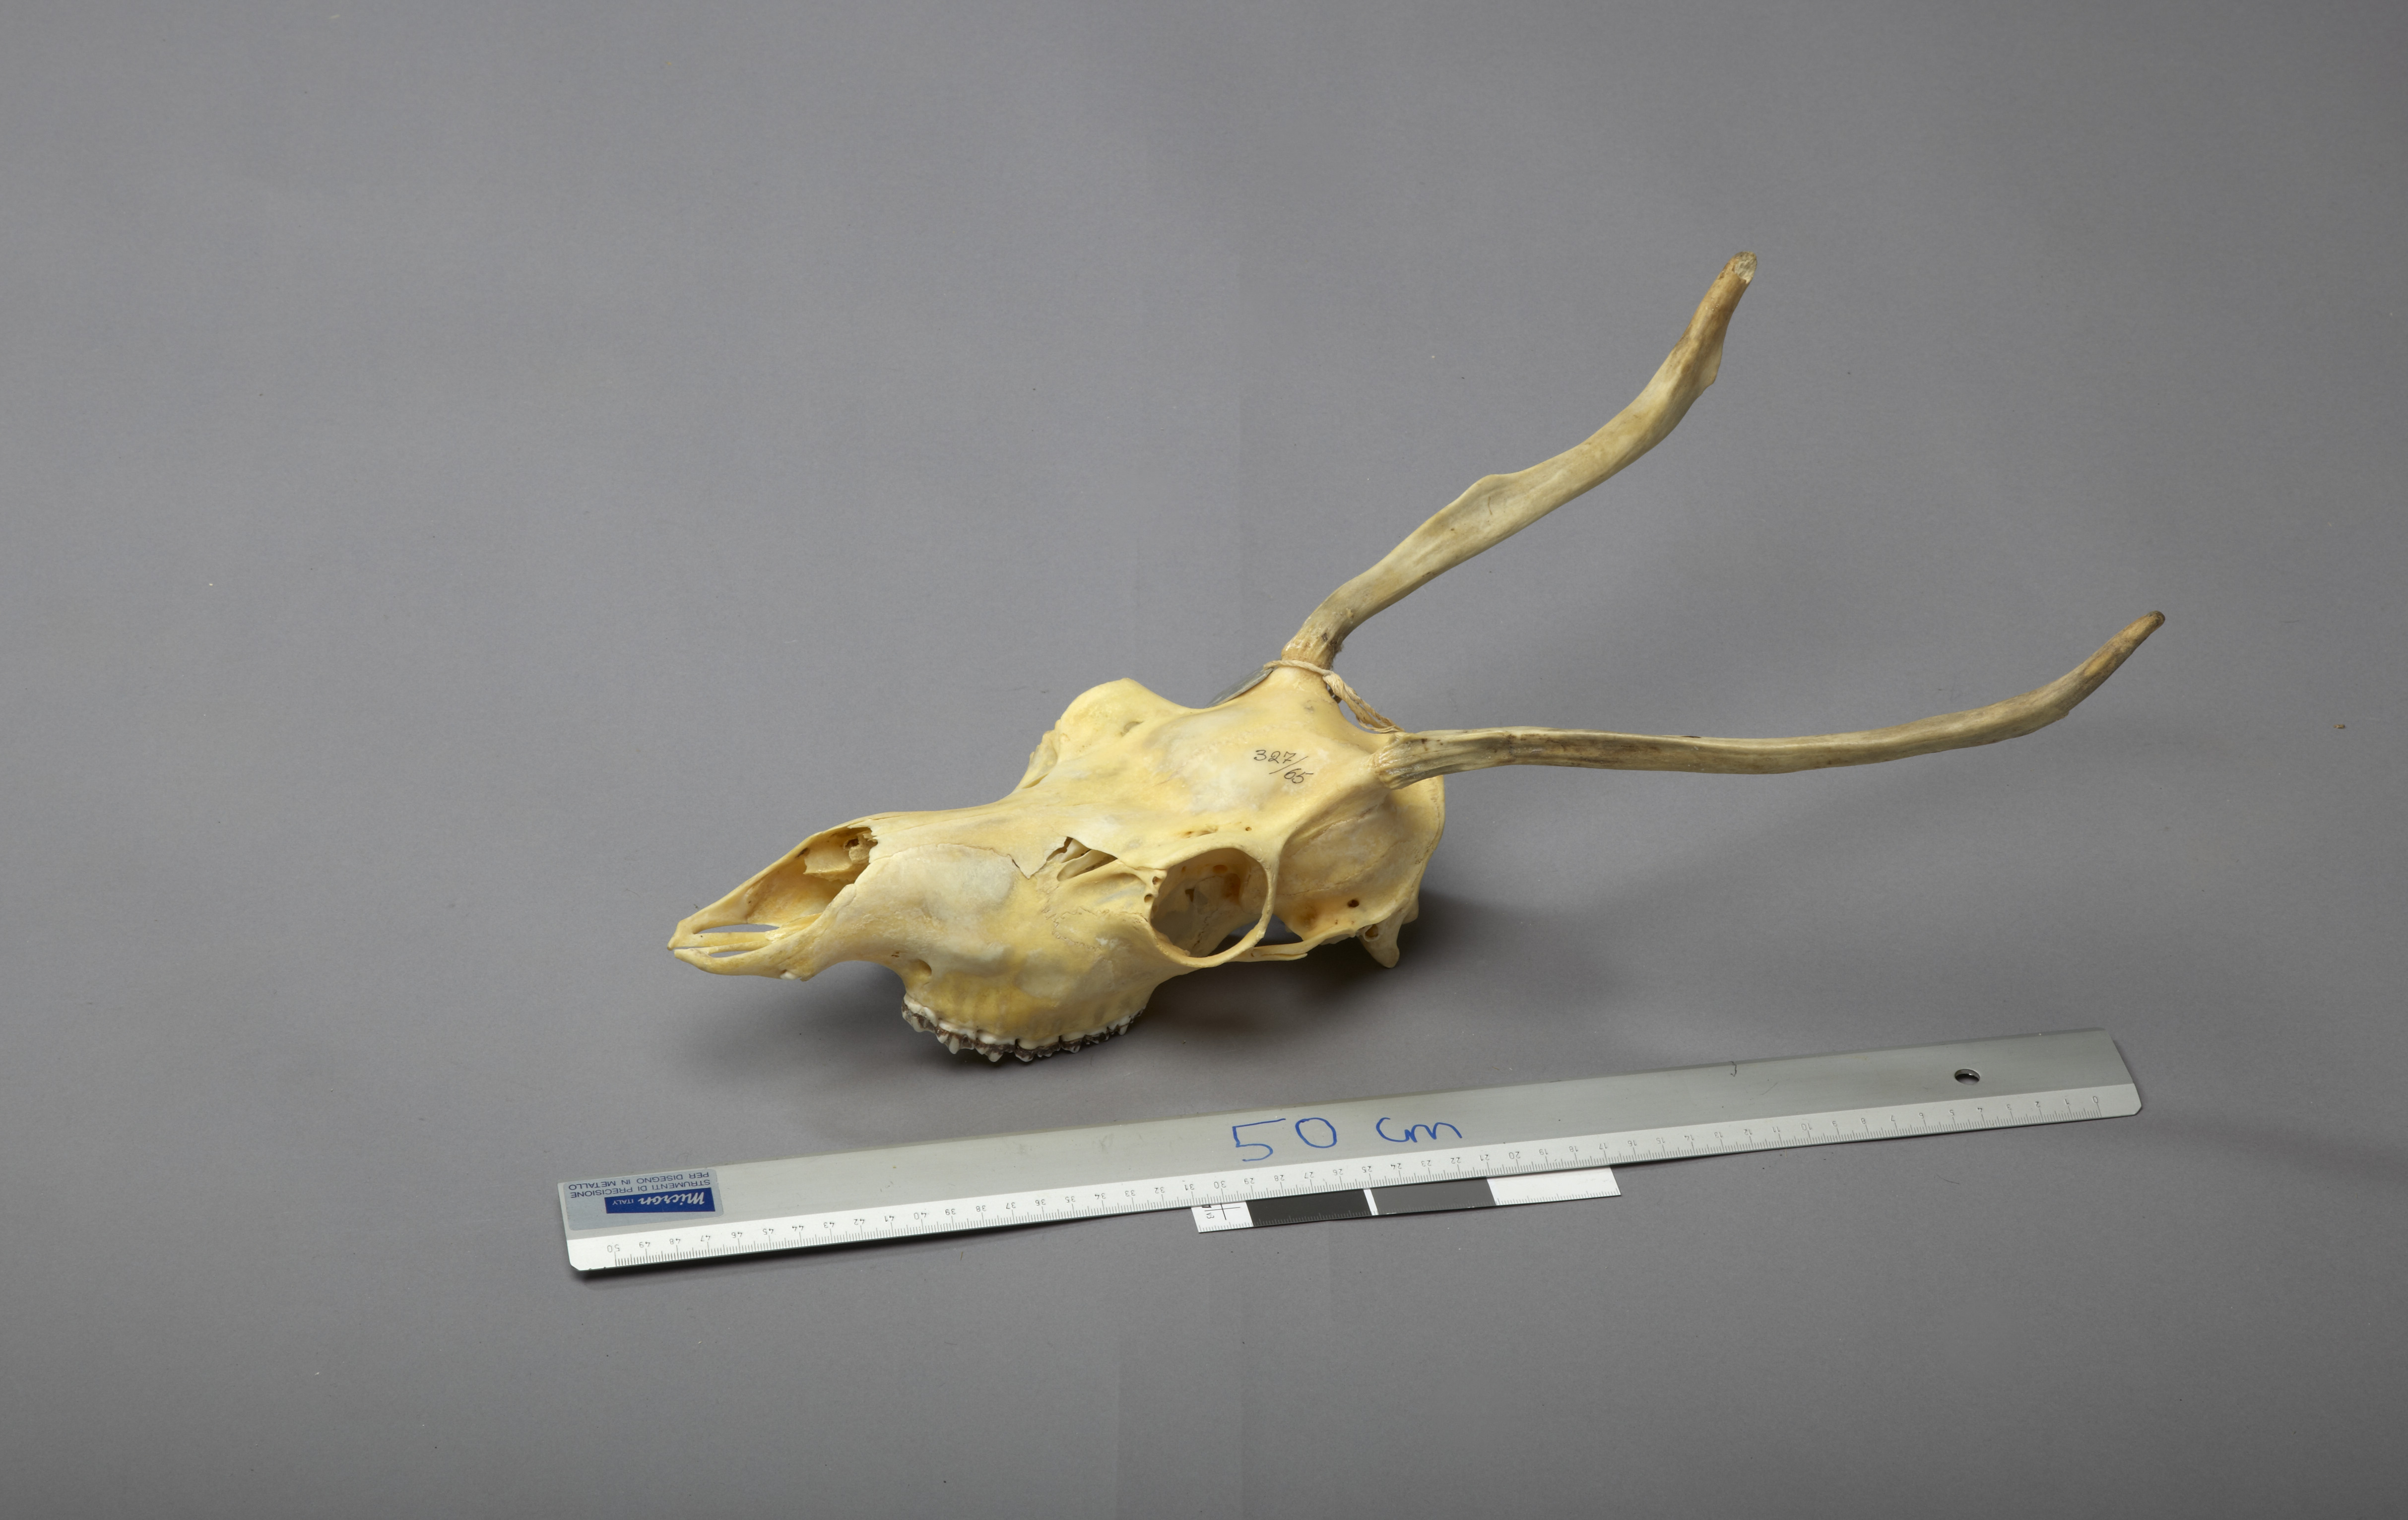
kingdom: Animalia
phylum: Chordata
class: Mammalia
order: Artiodactyla
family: Cervidae
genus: Rangifer
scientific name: Rangifer tarandus
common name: Reindeer
